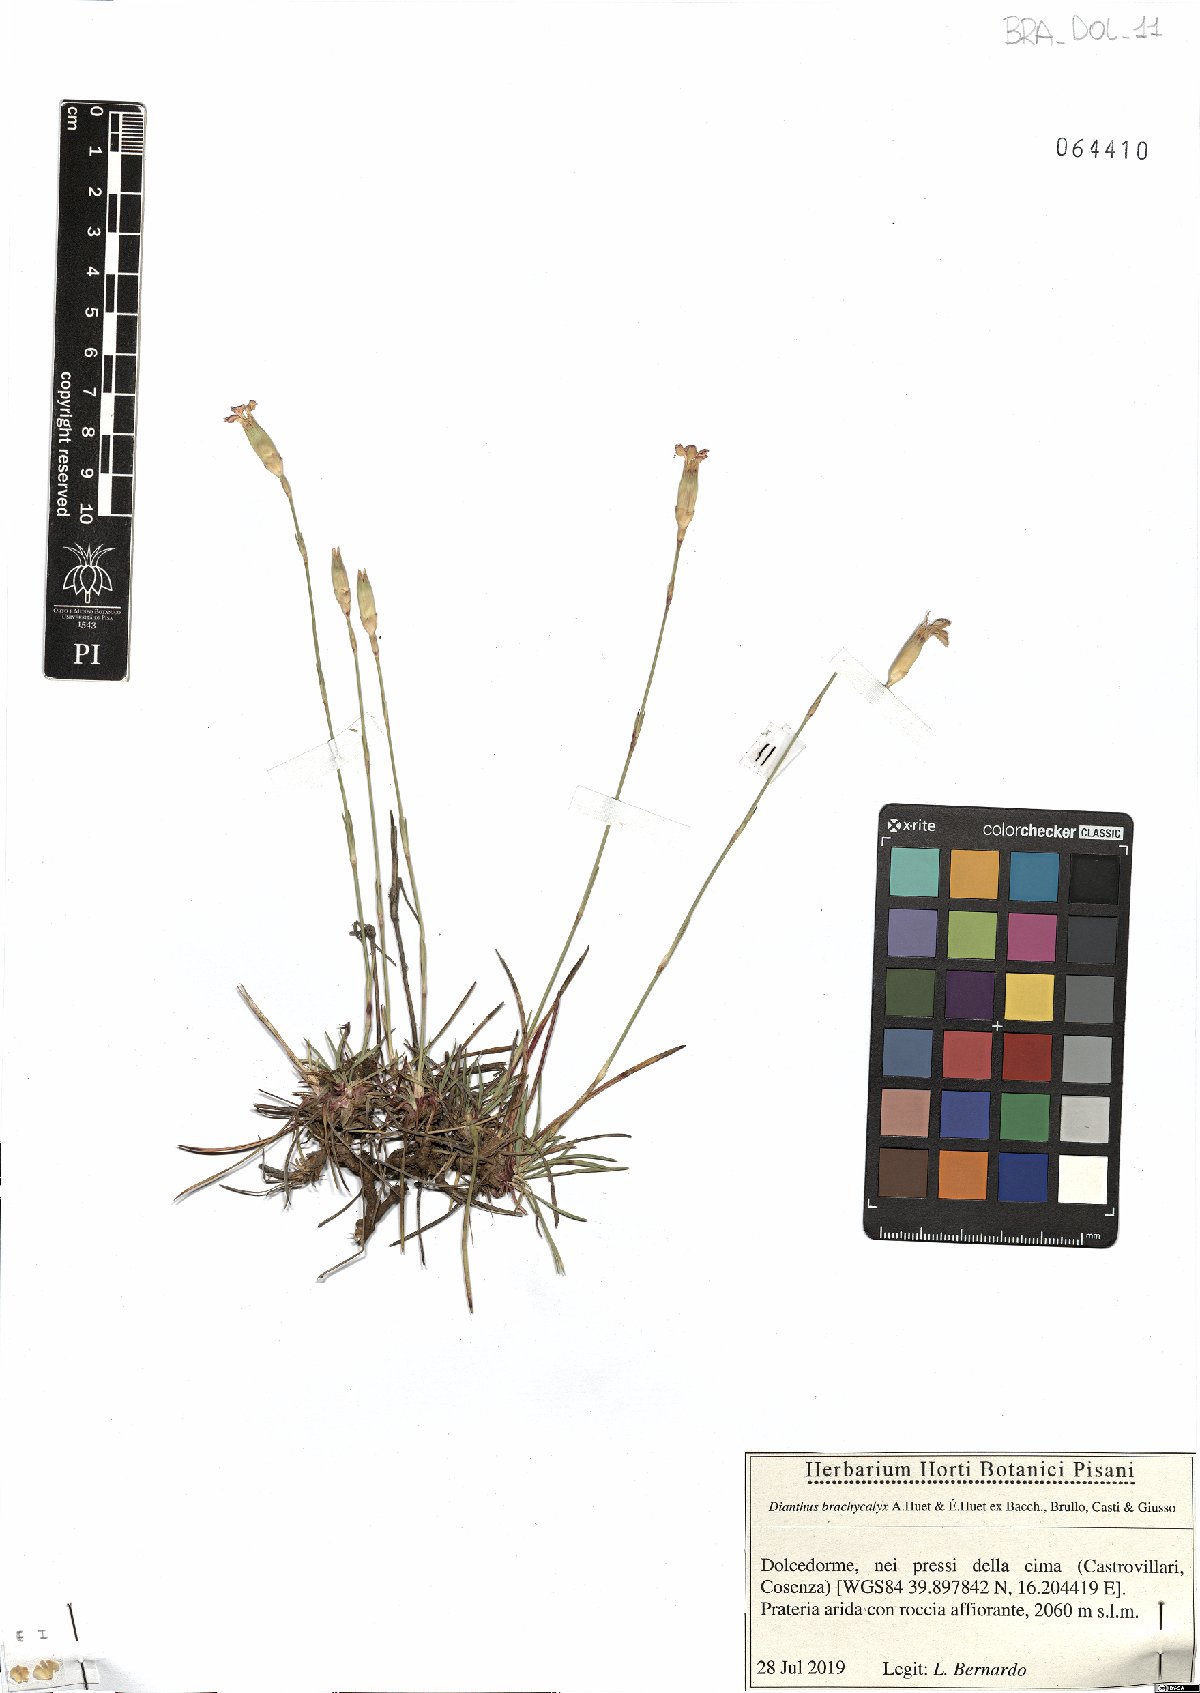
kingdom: Plantae
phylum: Tracheophyta
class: Magnoliopsida
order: Caryophyllales
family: Caryophyllaceae
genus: Dianthus
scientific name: Dianthus brachycalyx
